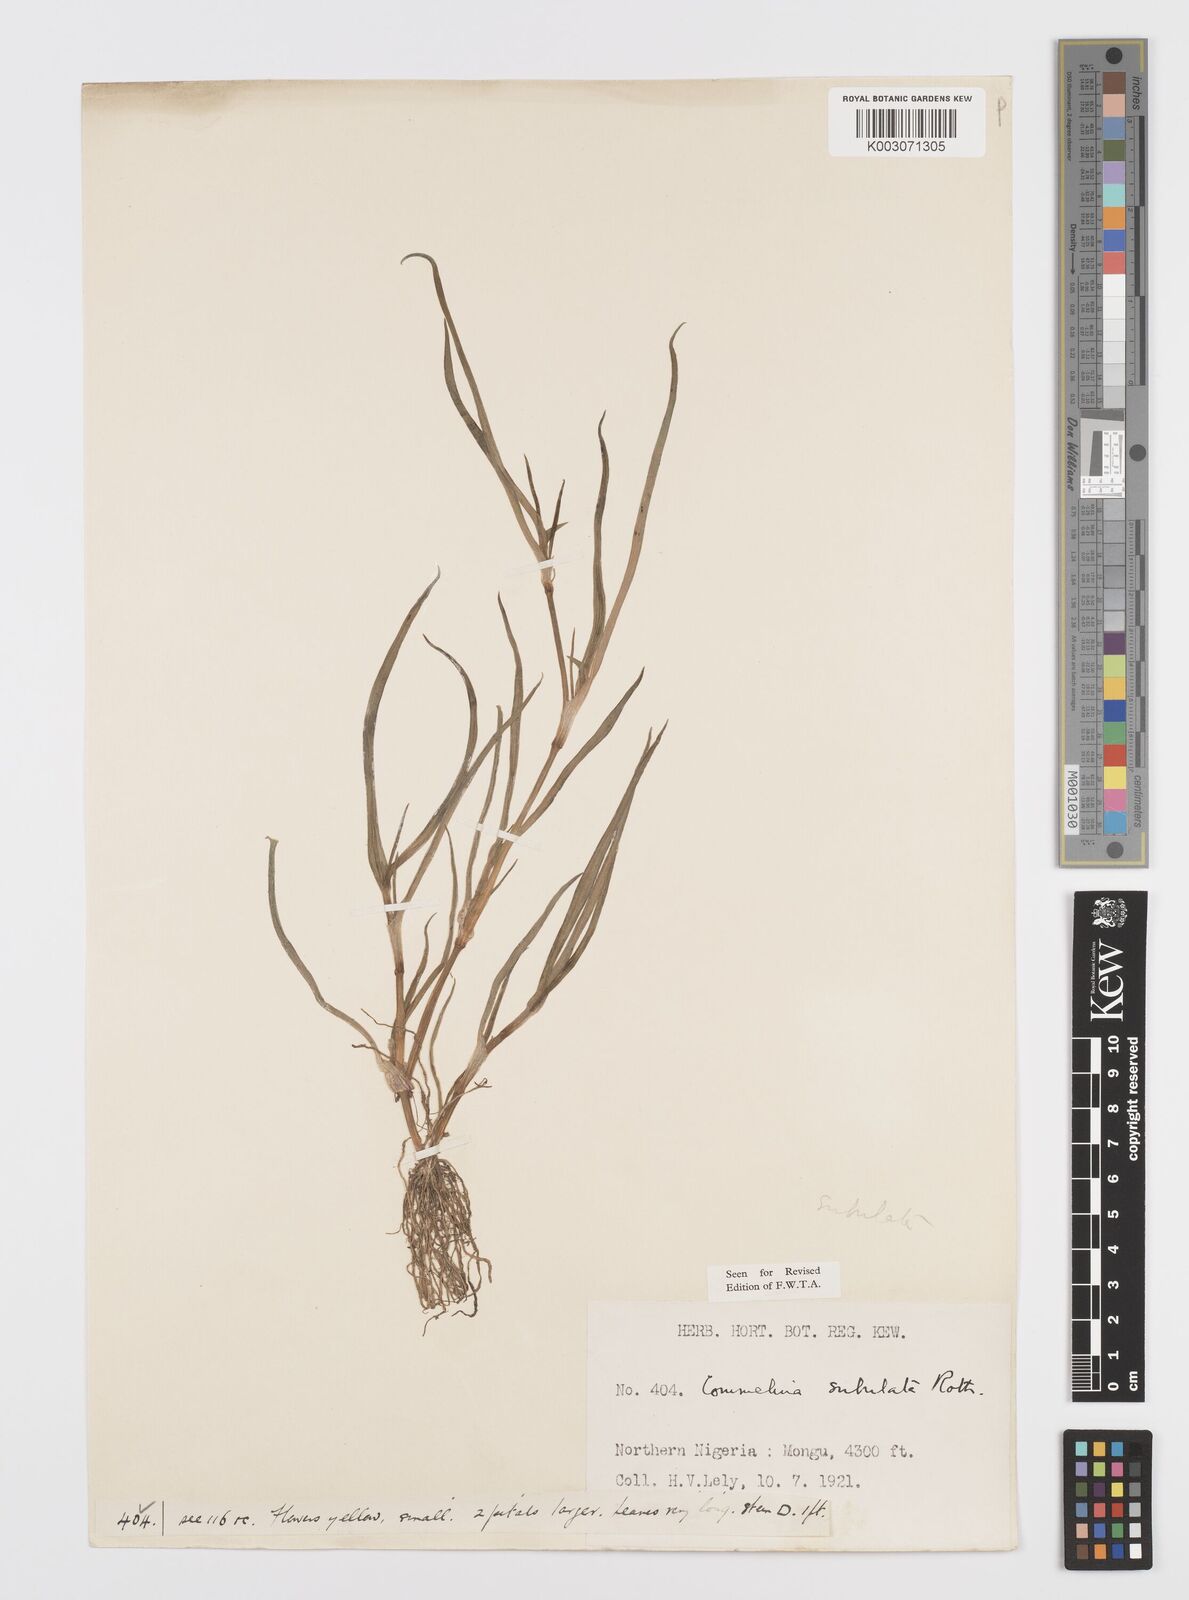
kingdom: Plantae
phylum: Tracheophyta
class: Liliopsida
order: Commelinales
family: Commelinaceae
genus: Commelina
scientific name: Commelina subulata
